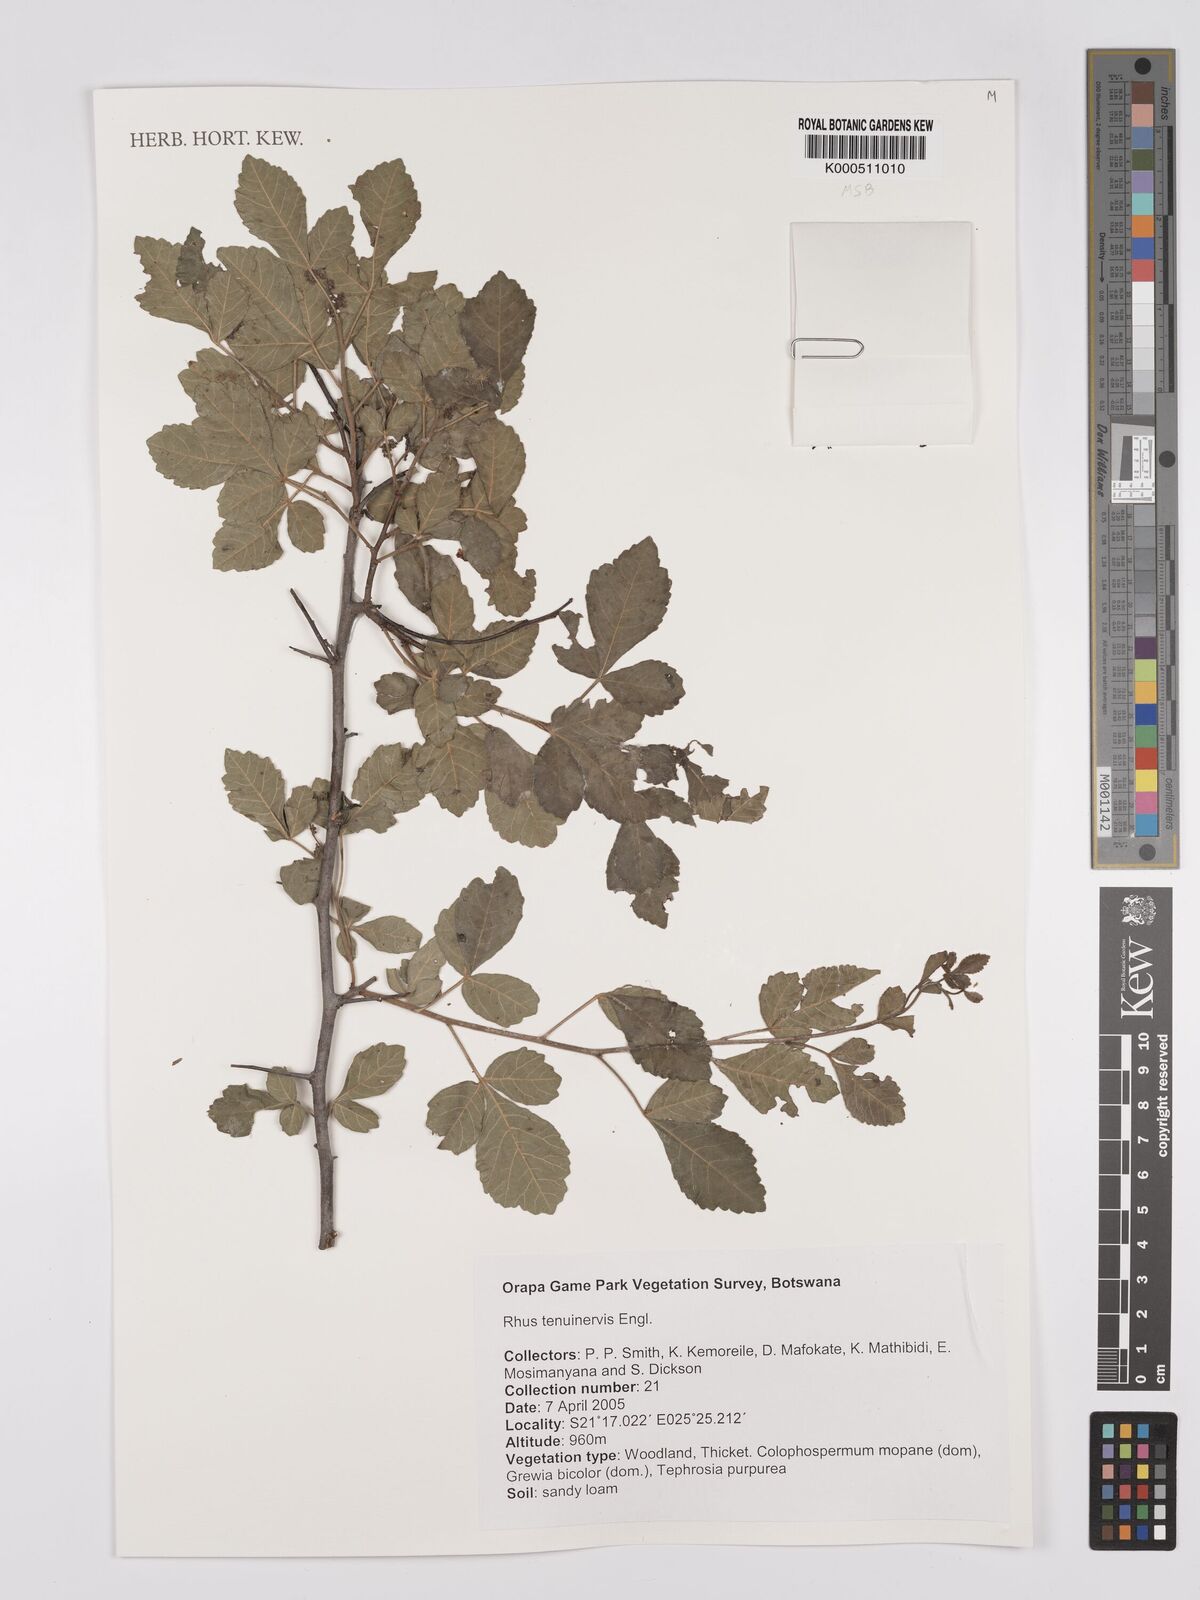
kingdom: Plantae
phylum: Tracheophyta
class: Magnoliopsida
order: Sapindales
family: Anacardiaceae
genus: Searsia
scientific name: Searsia tenuinervis
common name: Hyaena taaibos
